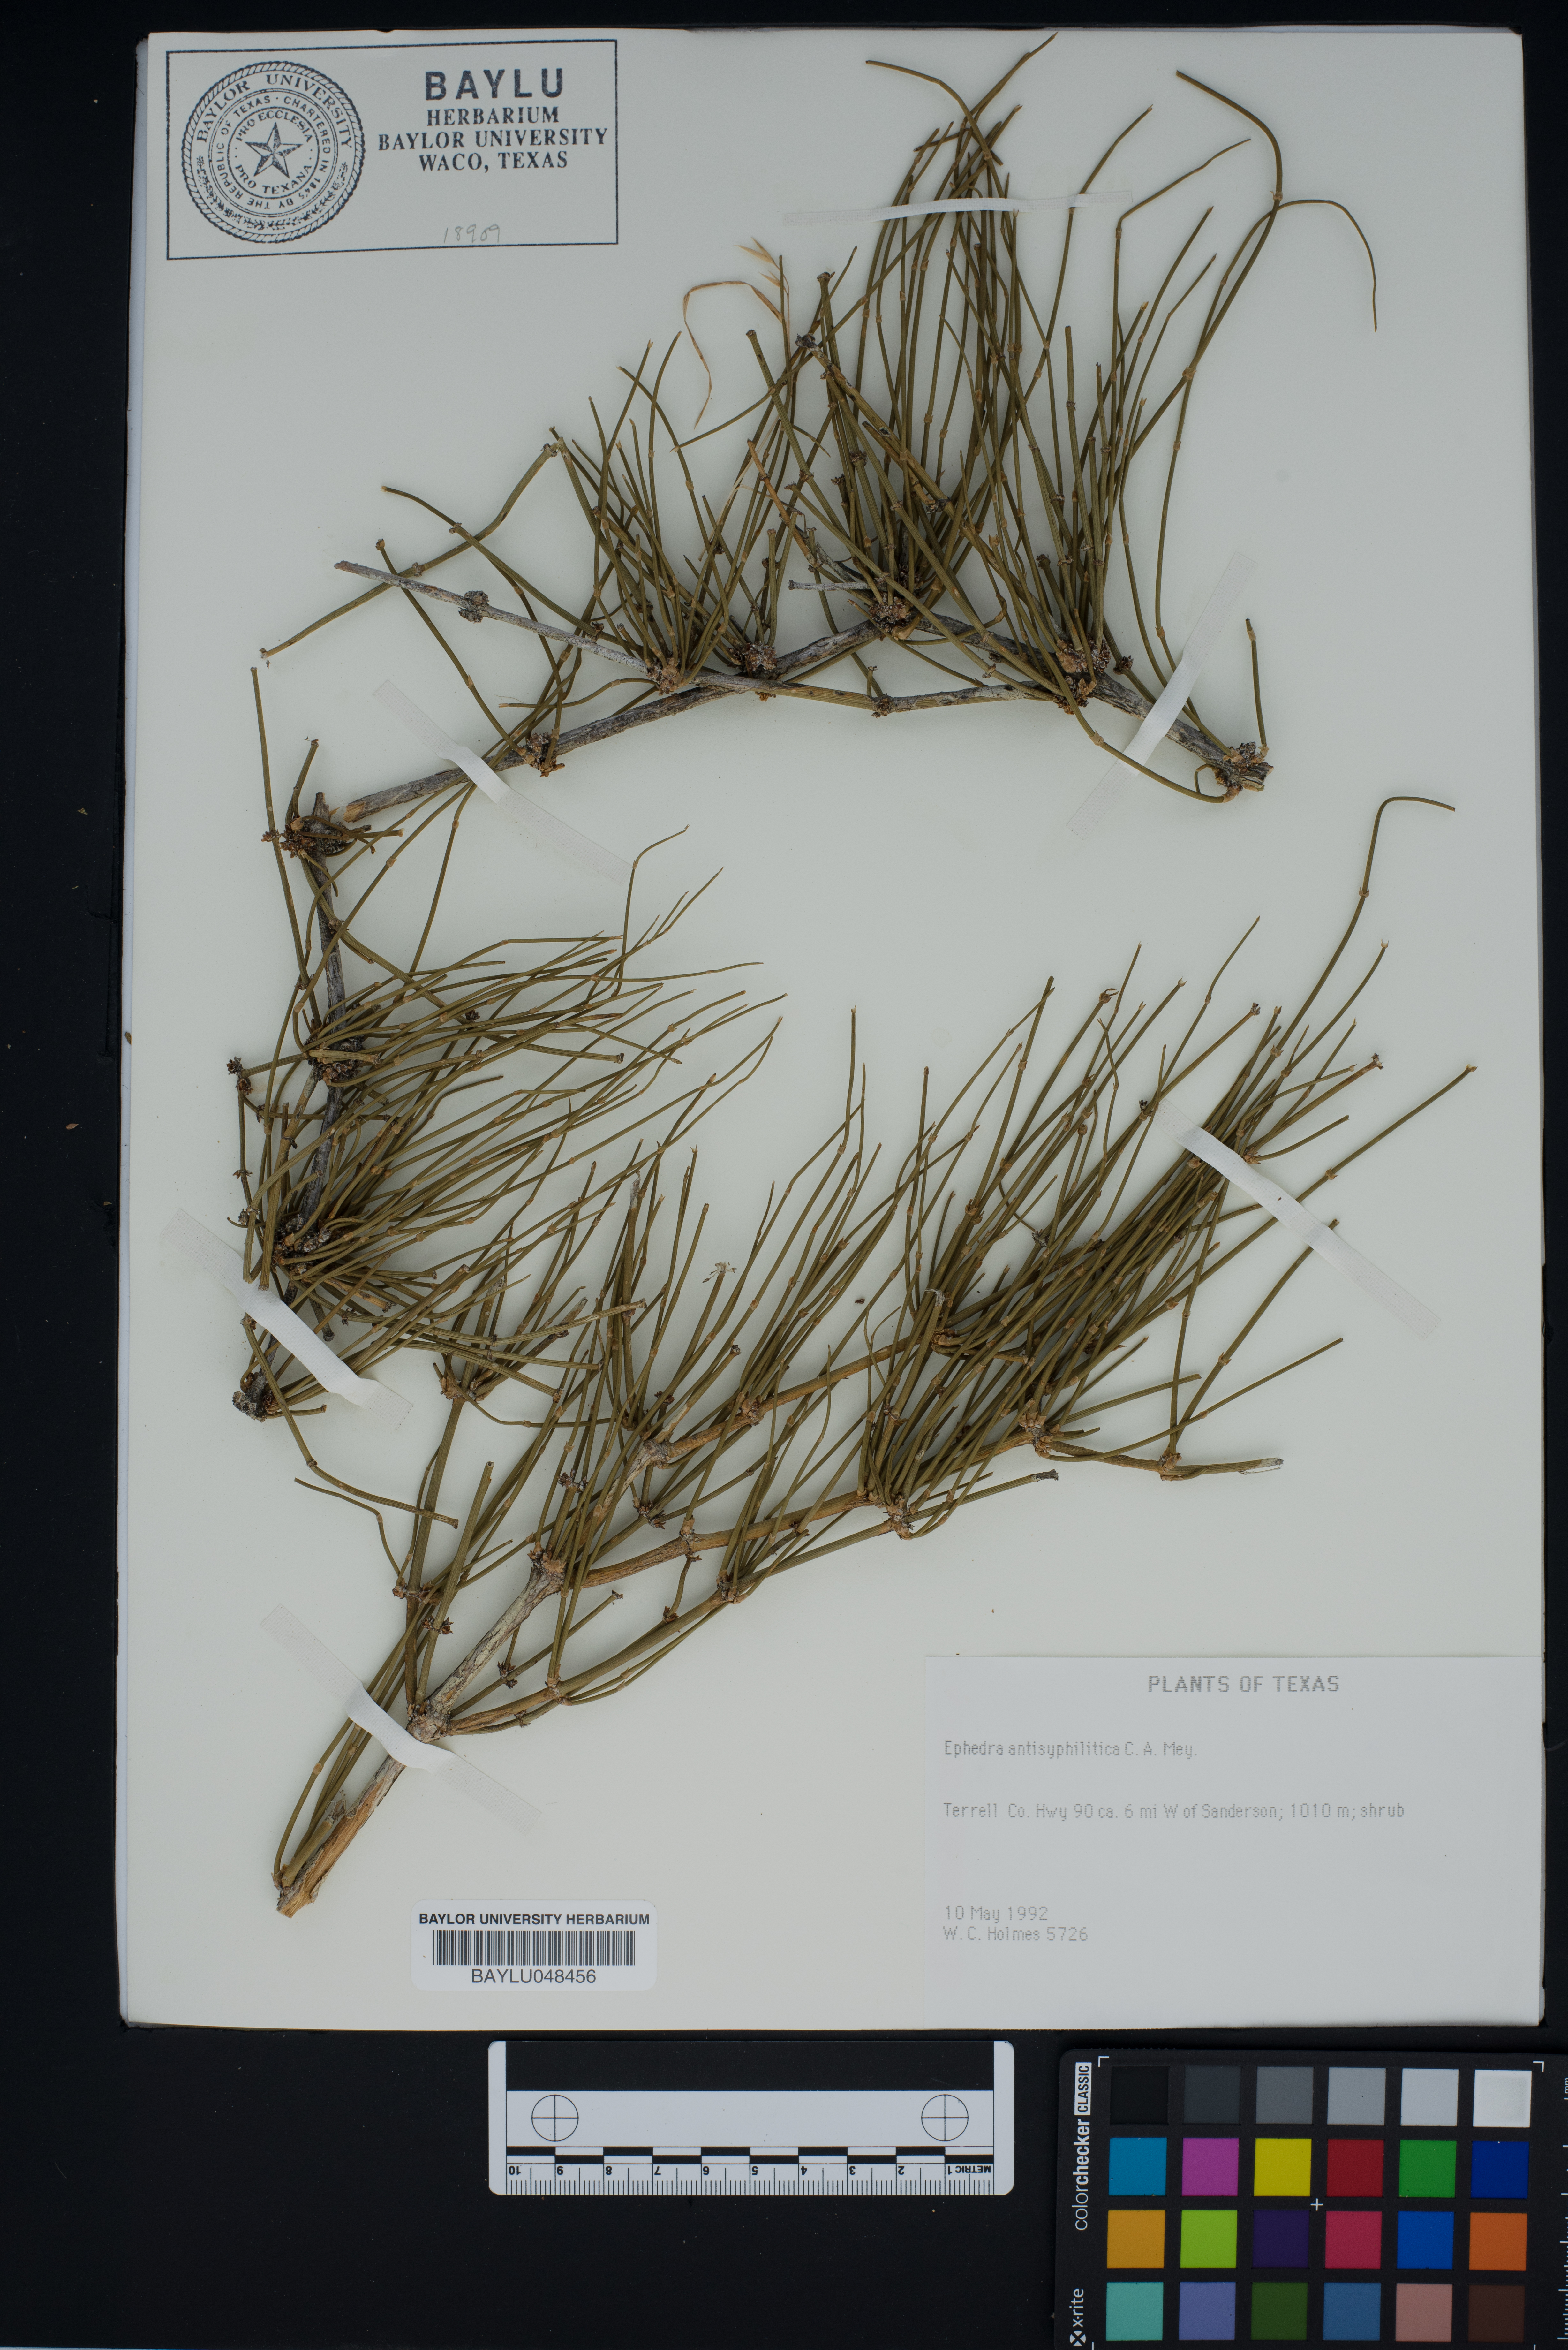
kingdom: Plantae
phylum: Tracheophyta
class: Gnetopsida
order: Ephedrales
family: Ephedraceae
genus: Ephedra
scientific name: Ephedra antisyphilitica
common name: Clipweed
